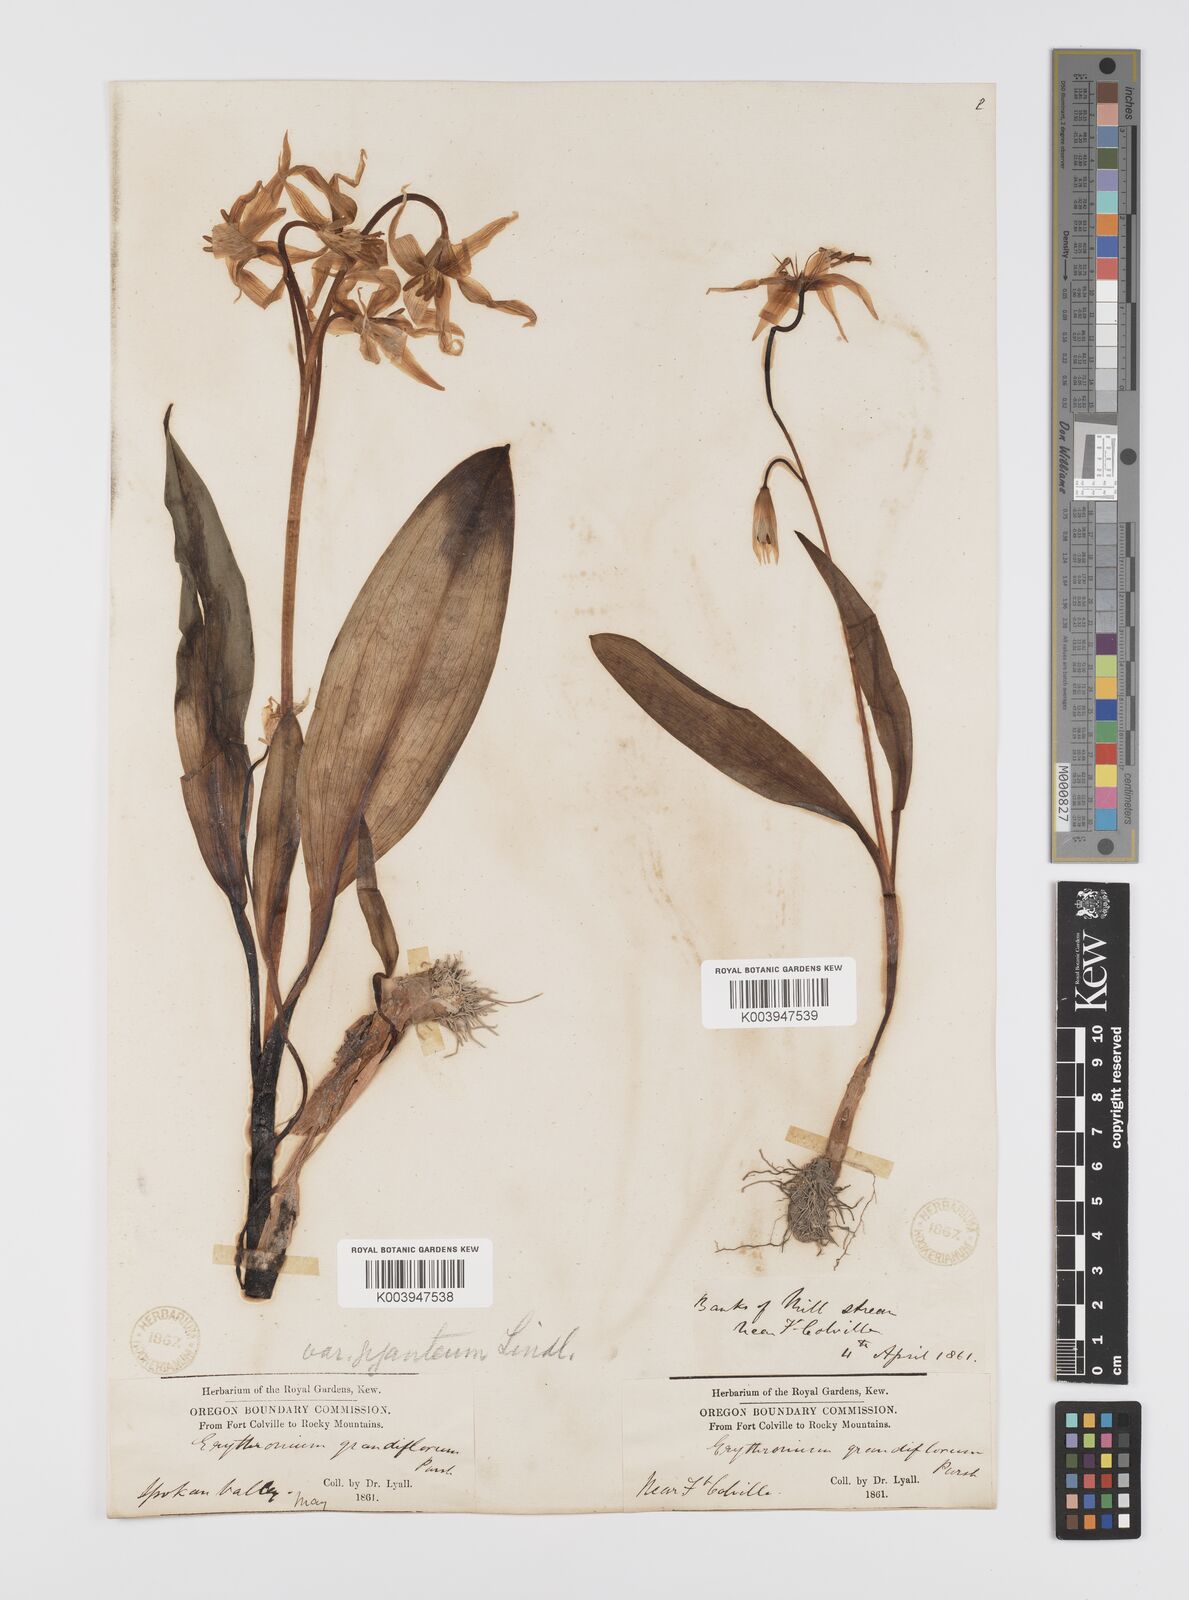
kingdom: Plantae
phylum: Tracheophyta
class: Liliopsida
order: Liliales
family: Liliaceae
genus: Erythronium
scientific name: Erythronium grandiflorum
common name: Avalanche-lily
